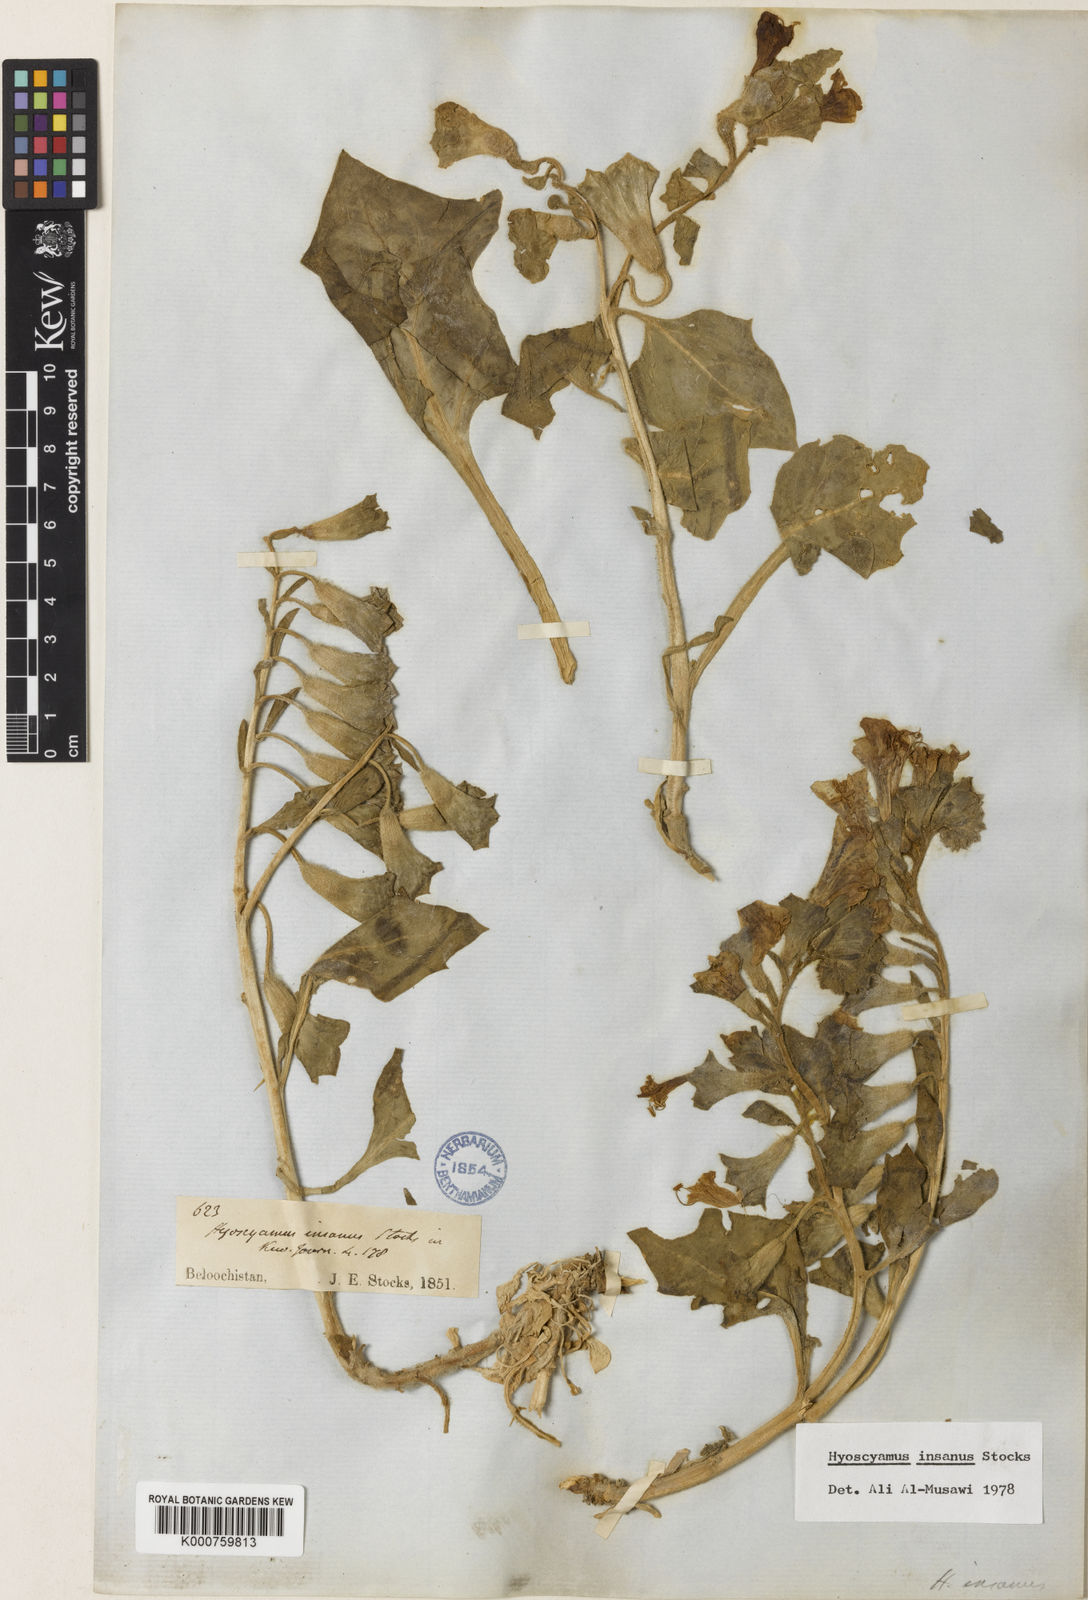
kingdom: Plantae
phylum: Tracheophyta
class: Magnoliopsida
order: Solanales
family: Solanaceae
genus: Hyoscyamus
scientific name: Hyoscyamus insanus
